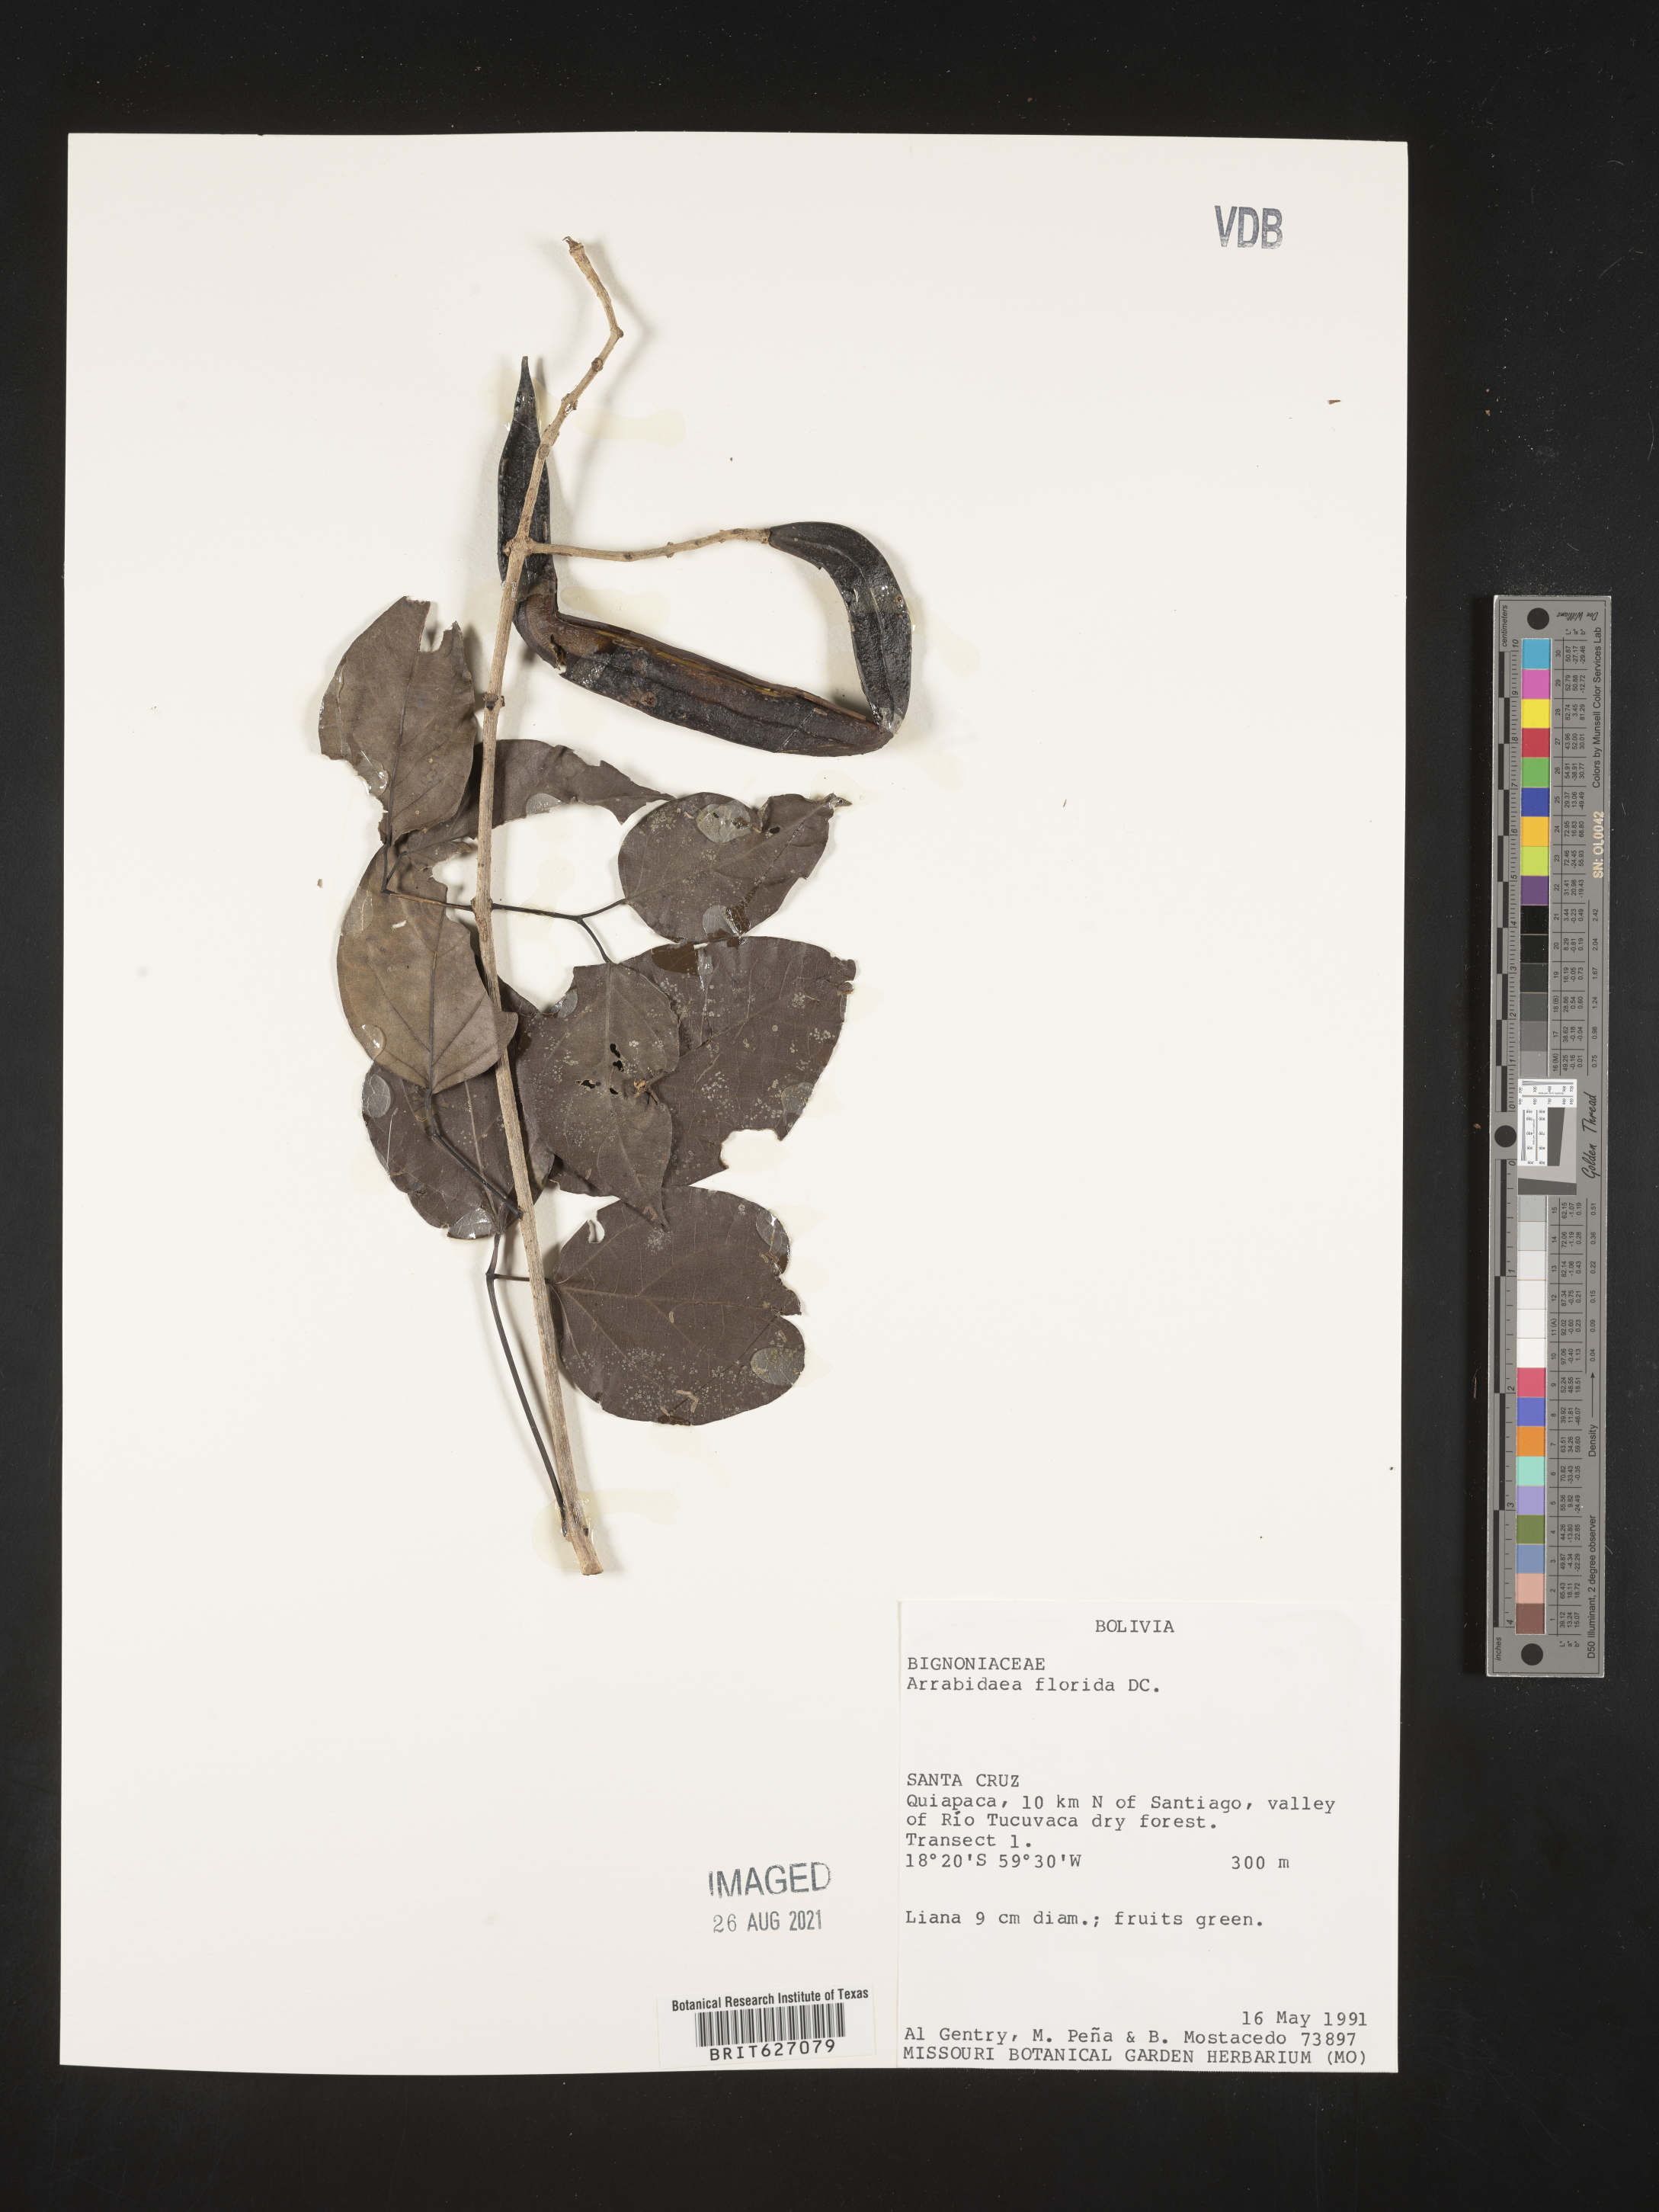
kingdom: Plantae
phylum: Tracheophyta
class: Magnoliopsida
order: Lamiales
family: Bignoniaceae
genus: Fridericia
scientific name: Fridericia florida
